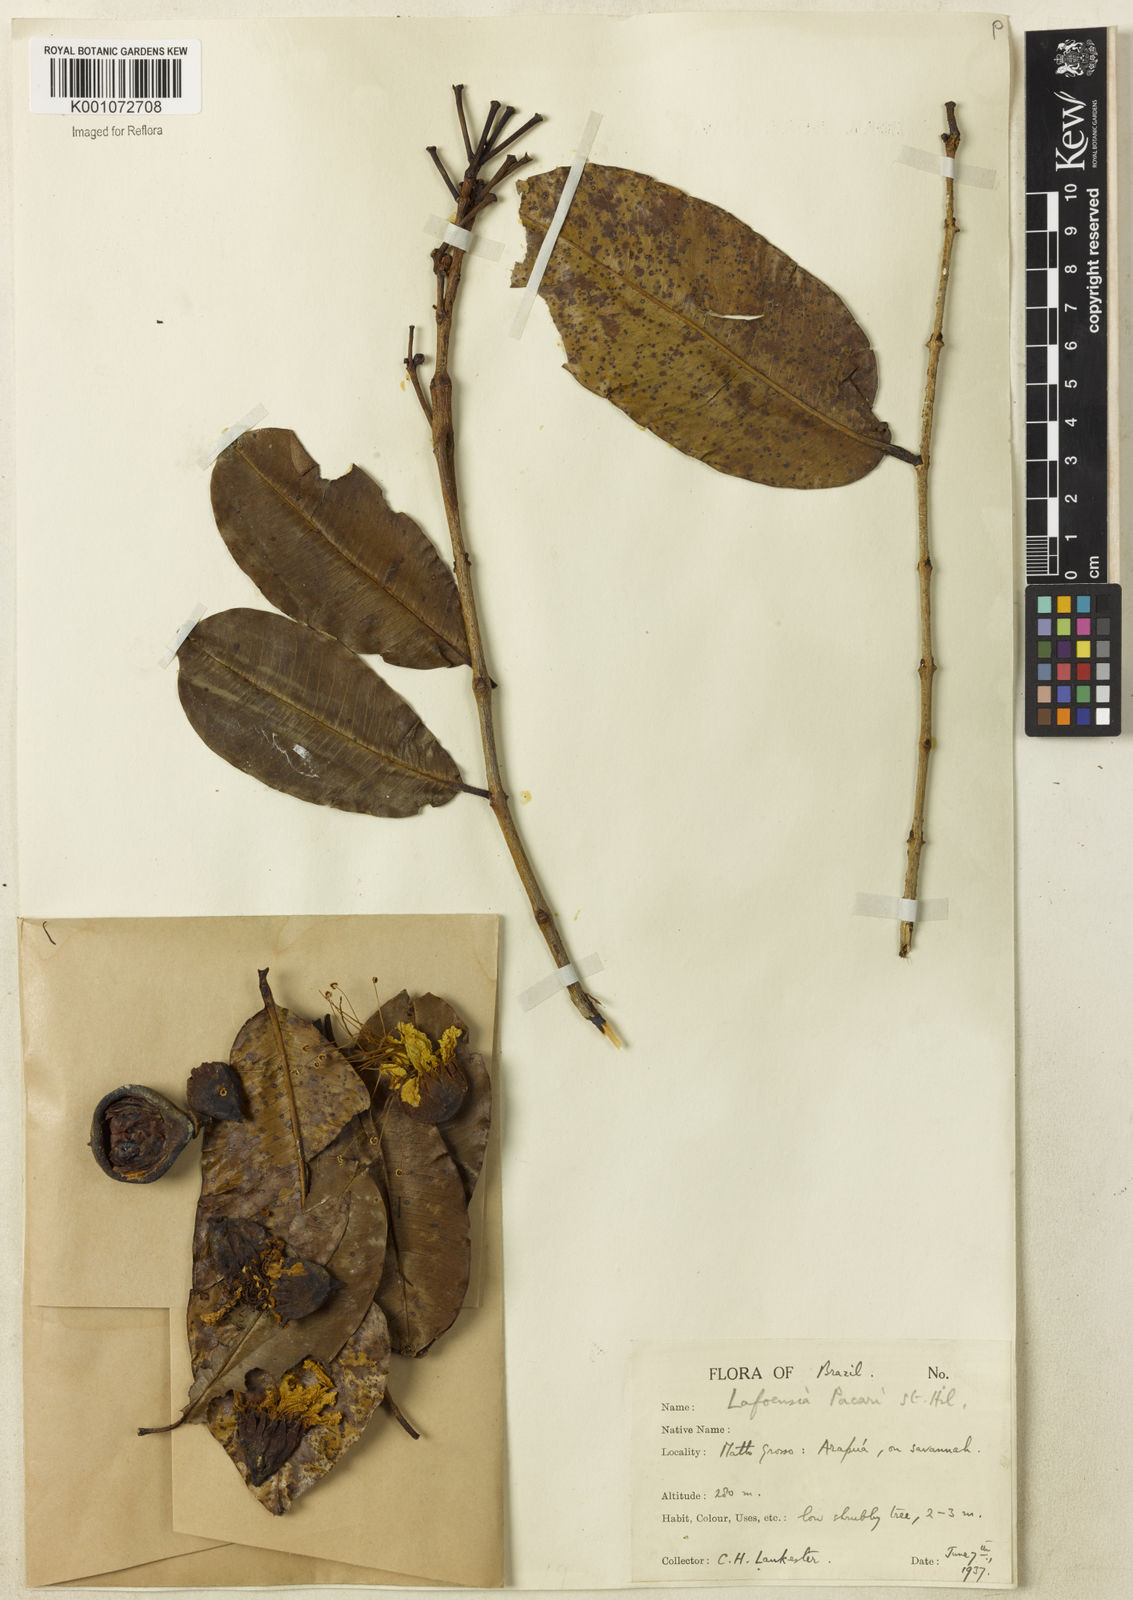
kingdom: Plantae
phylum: Tracheophyta
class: Magnoliopsida
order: Myrtales
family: Lythraceae
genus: Lafoensia
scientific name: Lafoensia pacari
